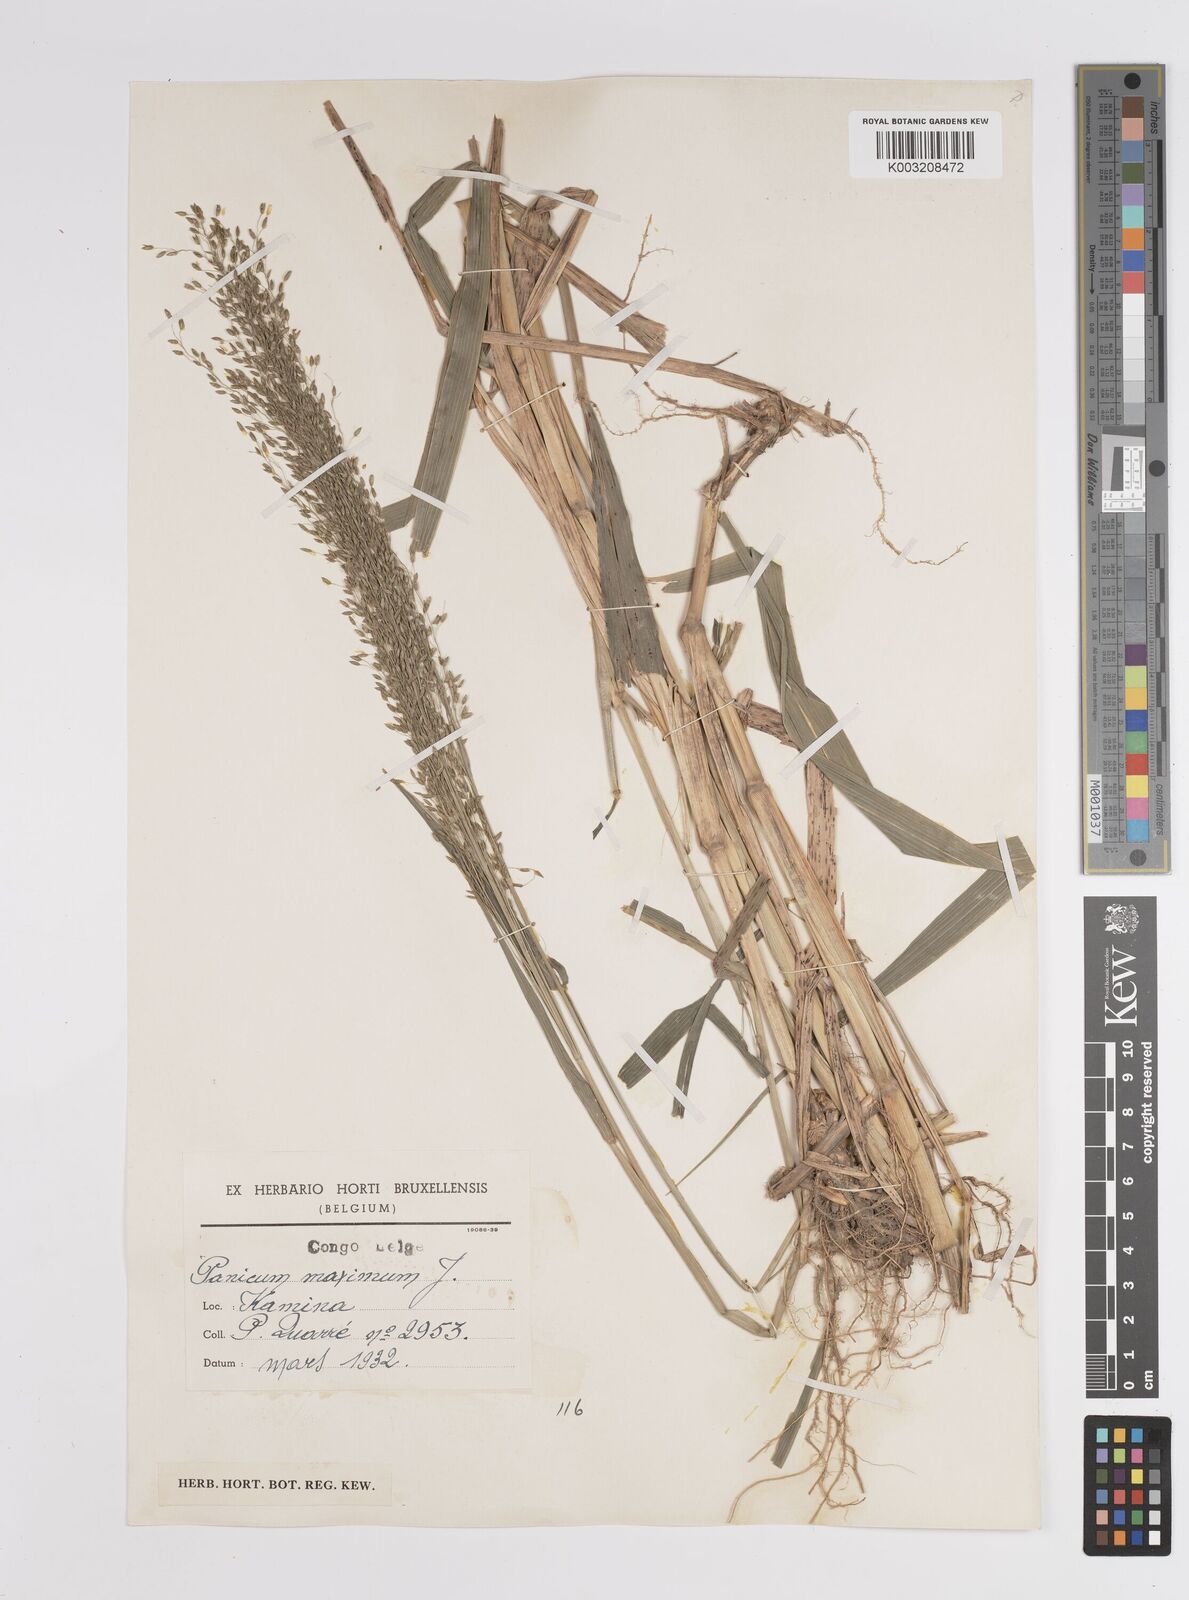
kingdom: Plantae
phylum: Tracheophyta
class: Liliopsida
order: Poales
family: Poaceae
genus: Megathyrsus
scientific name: Megathyrsus maximus
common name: Guineagrass
